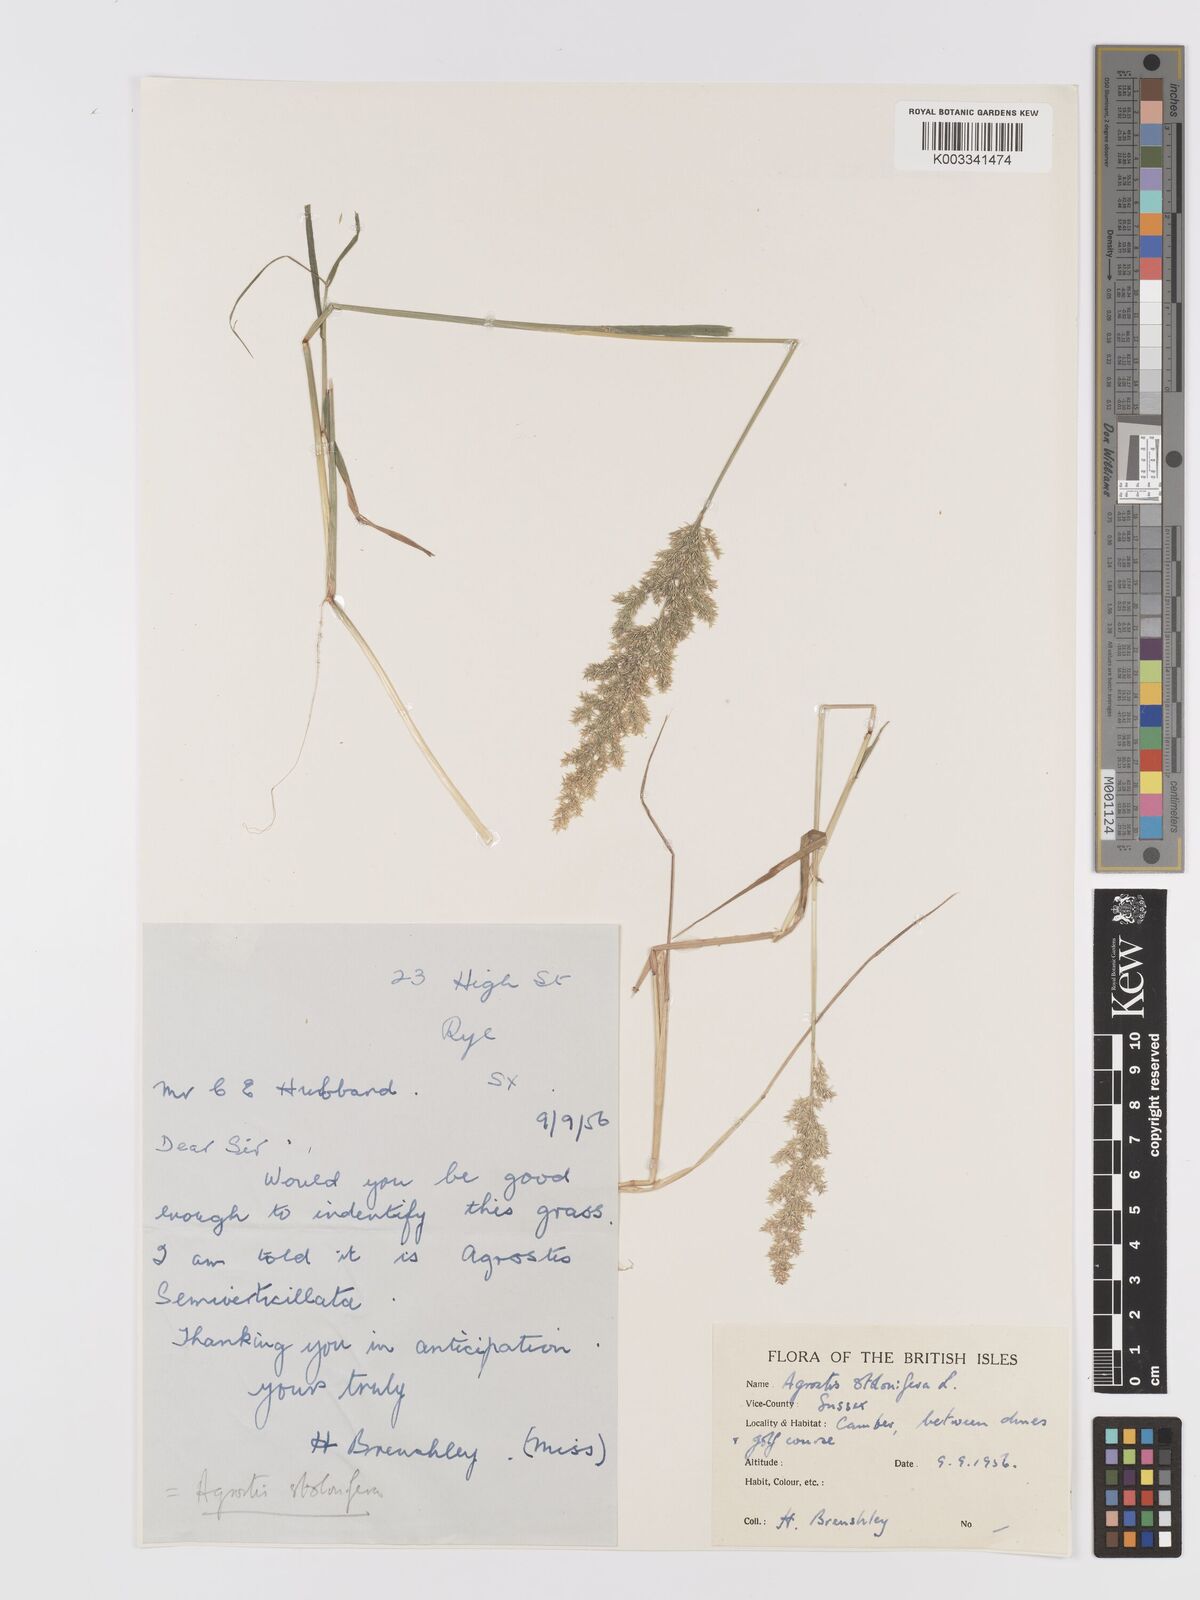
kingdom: Plantae
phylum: Tracheophyta
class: Liliopsida
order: Poales
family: Poaceae
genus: Agrostis
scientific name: Agrostis stolonifera
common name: Creeping bentgrass
